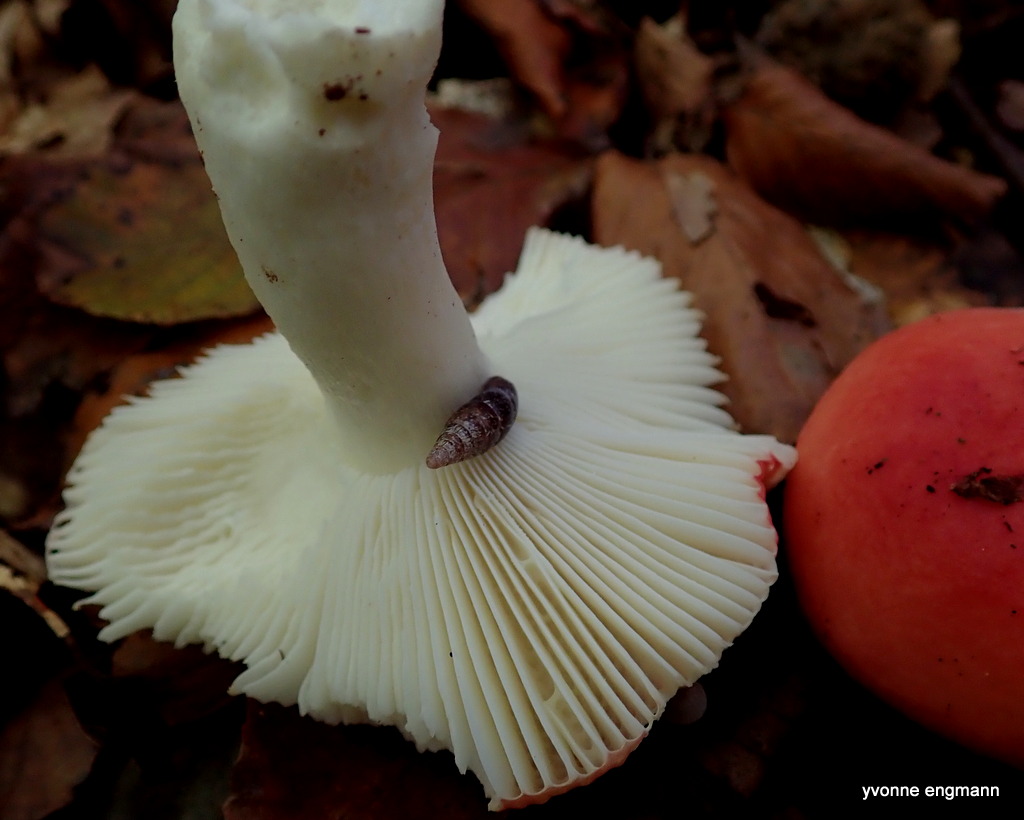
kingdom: Fungi
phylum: Basidiomycota
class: Agaricomycetes
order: Russulales
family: Russulaceae
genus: Russula
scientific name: Russula nobilis
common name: lille gift-skørhat
